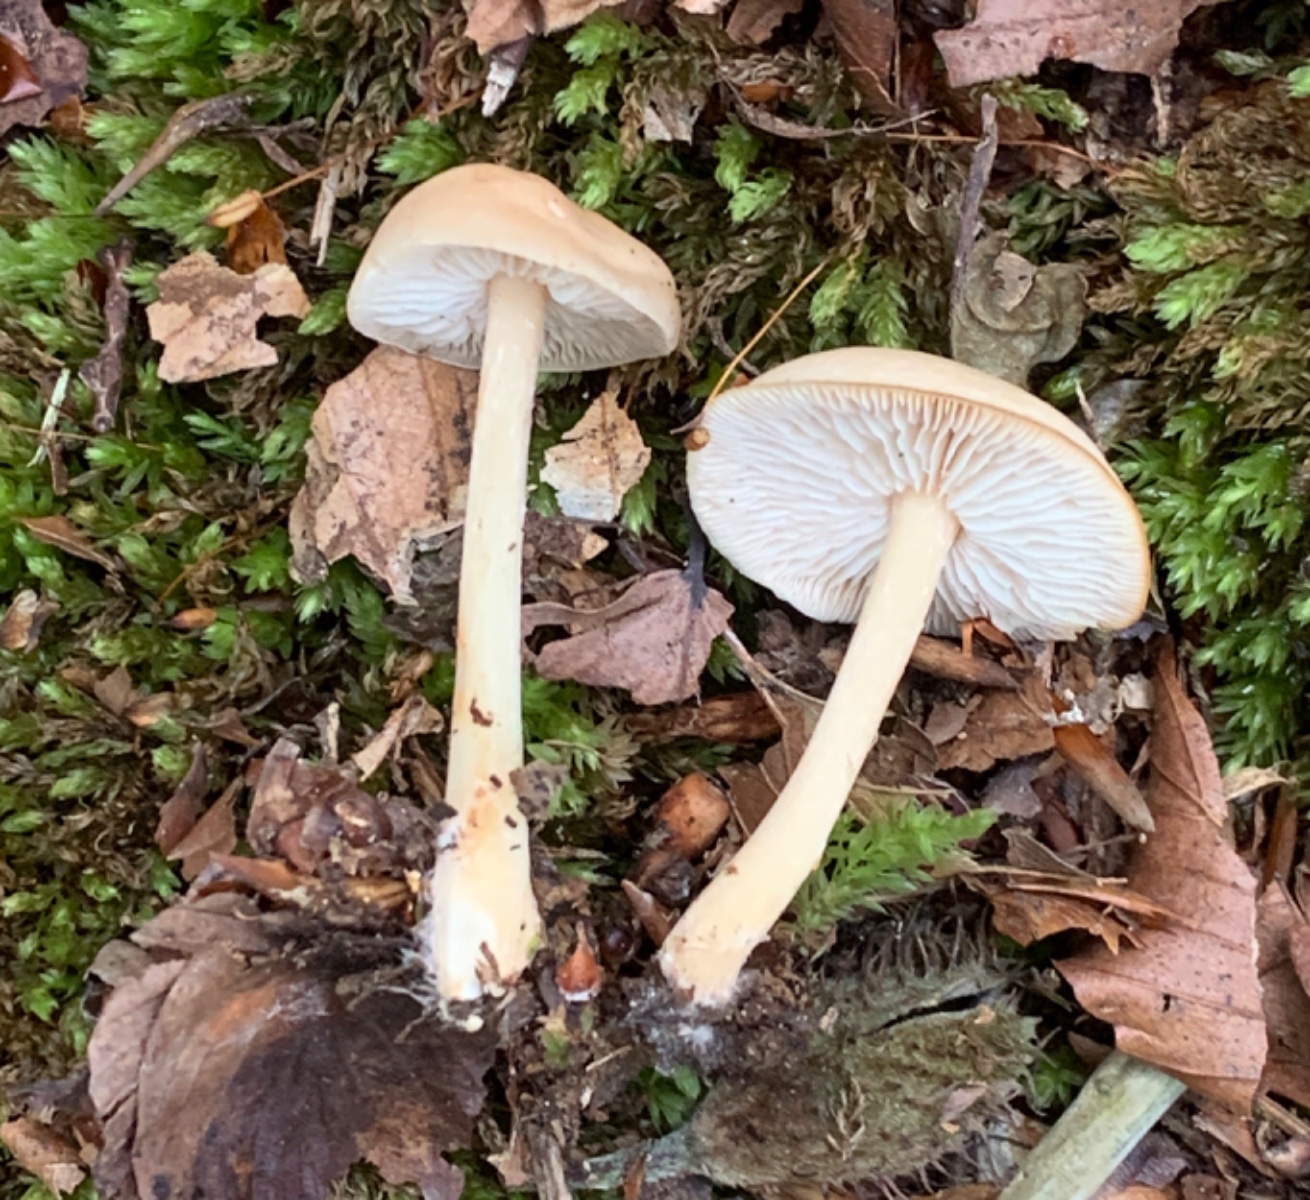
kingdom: Fungi
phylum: Basidiomycota
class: Agaricomycetes
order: Agaricales
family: Omphalotaceae
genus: Gymnopus
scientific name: Gymnopus dryophilus
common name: løv-fladhat
